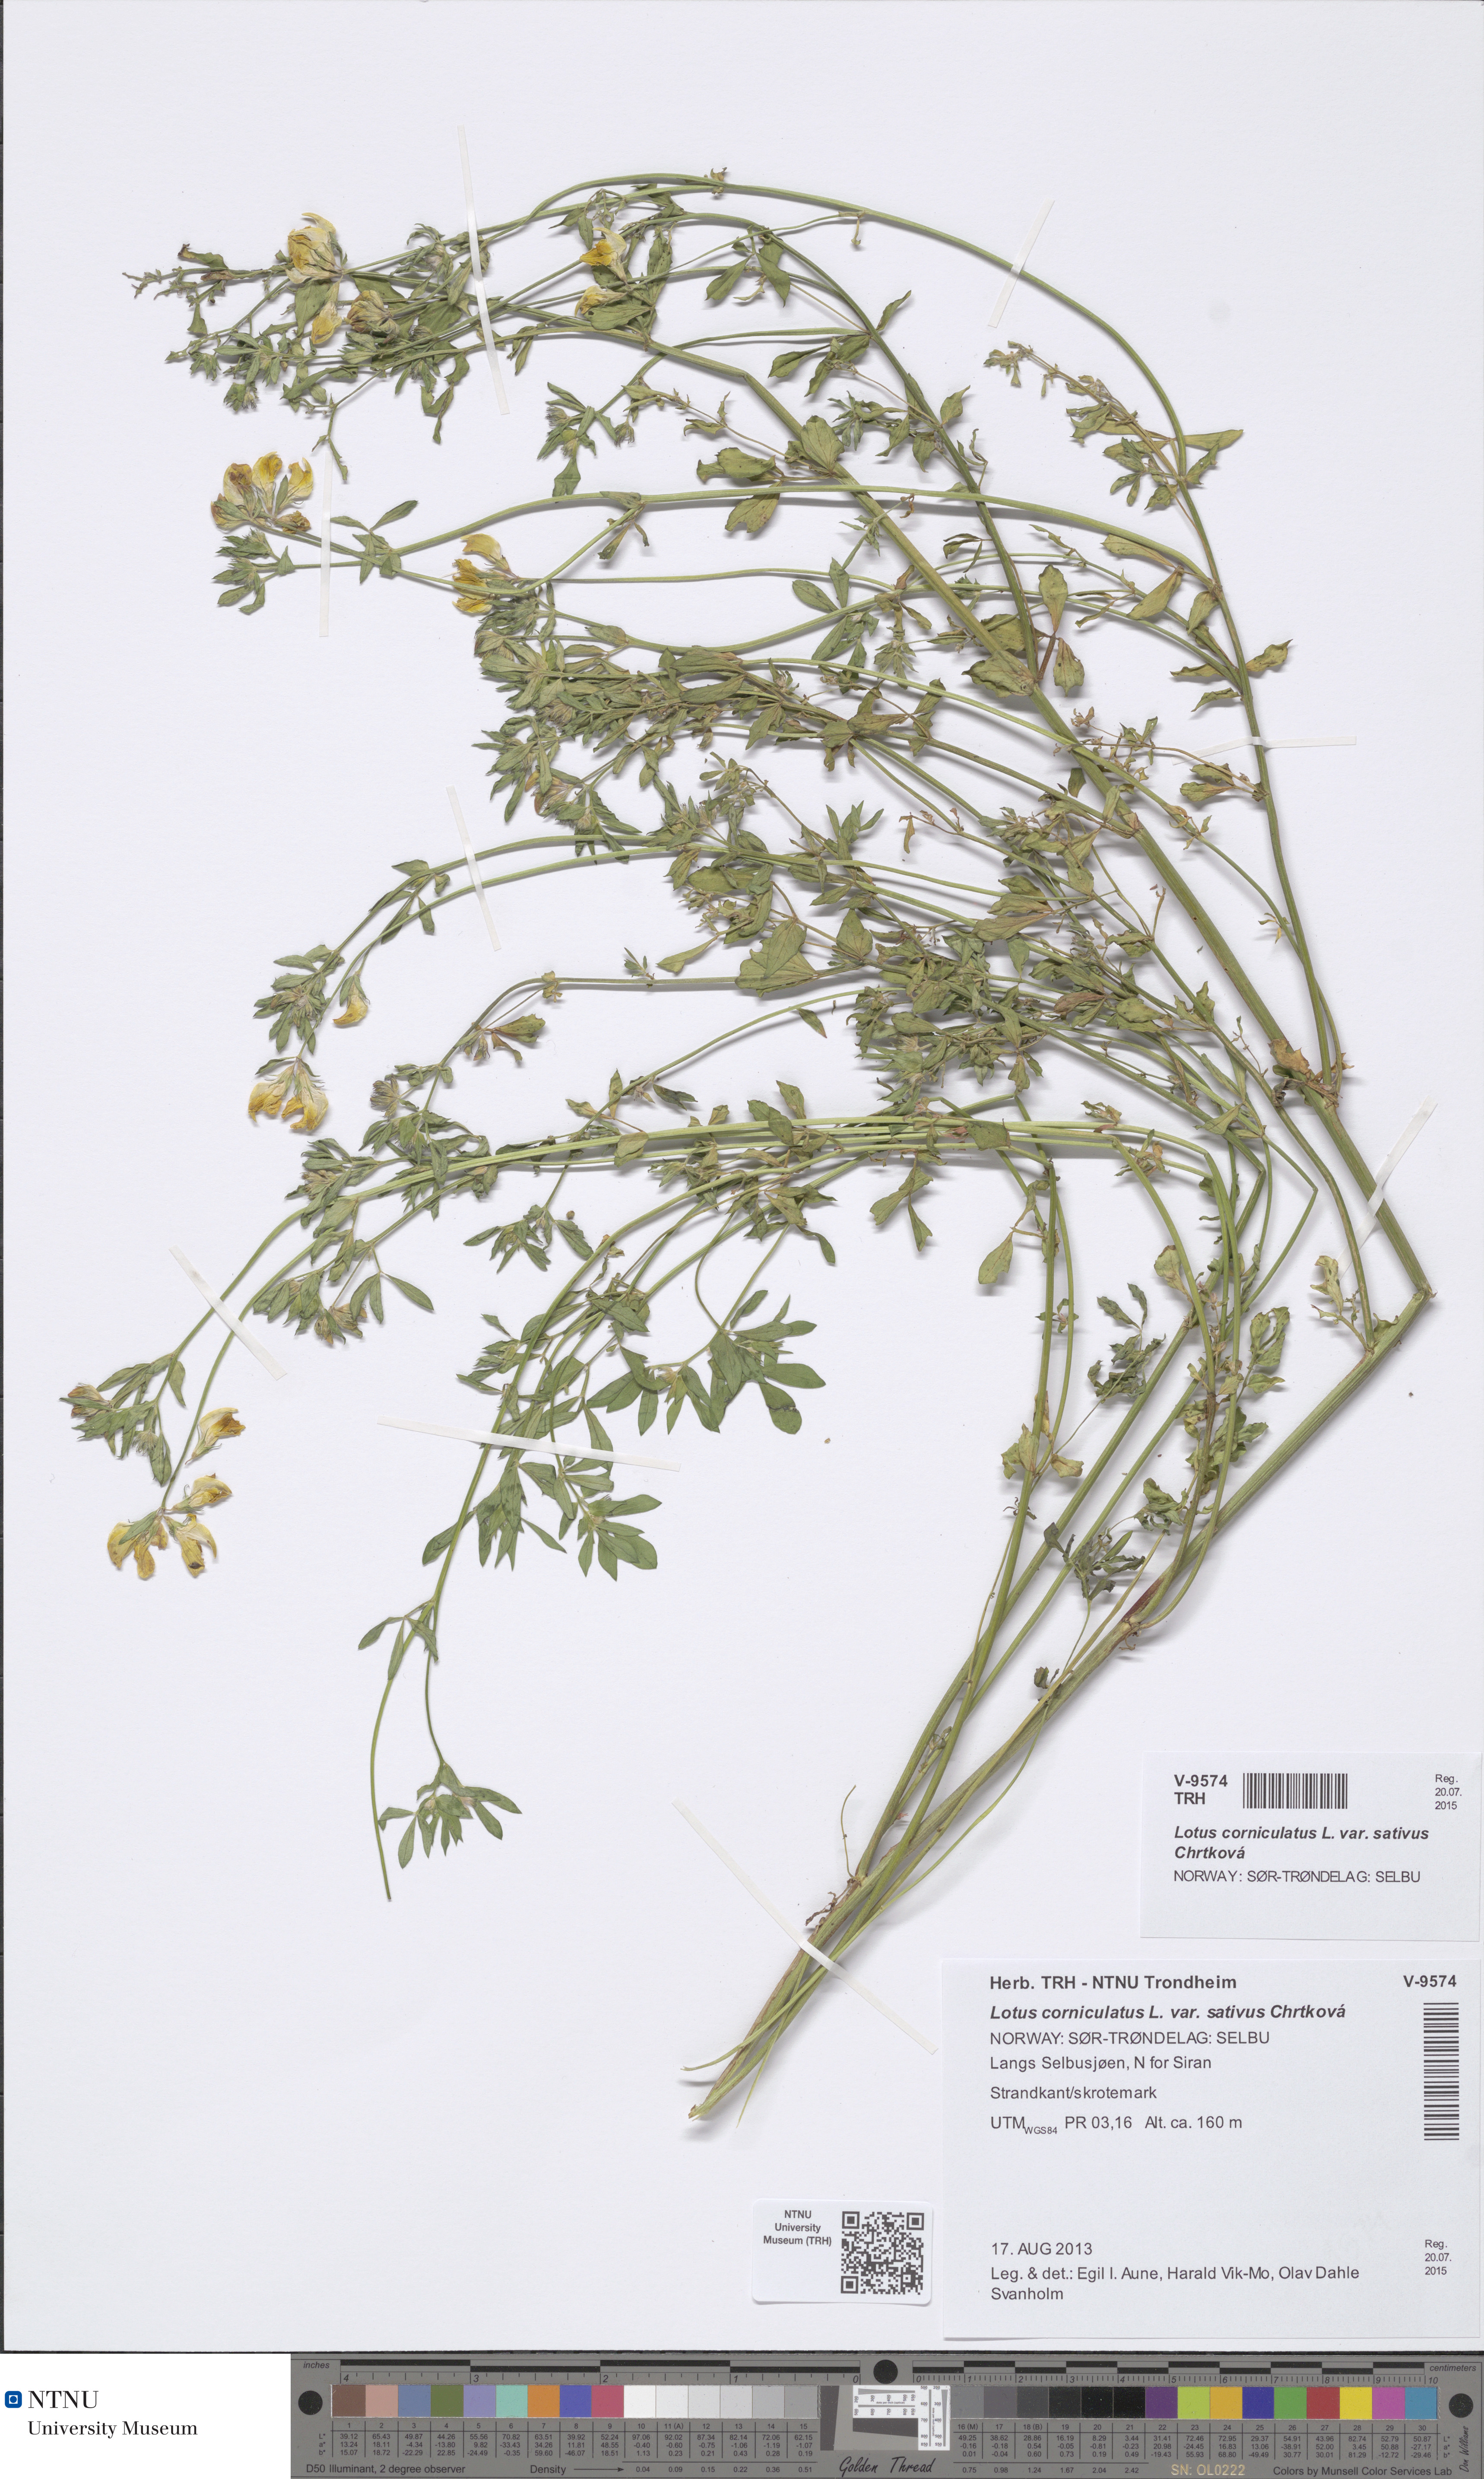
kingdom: Plantae
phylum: Tracheophyta
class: Magnoliopsida
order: Fabales
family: Fabaceae
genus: Lotus
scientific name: Lotus corniculatus
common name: Common bird's-foot-trefoil
